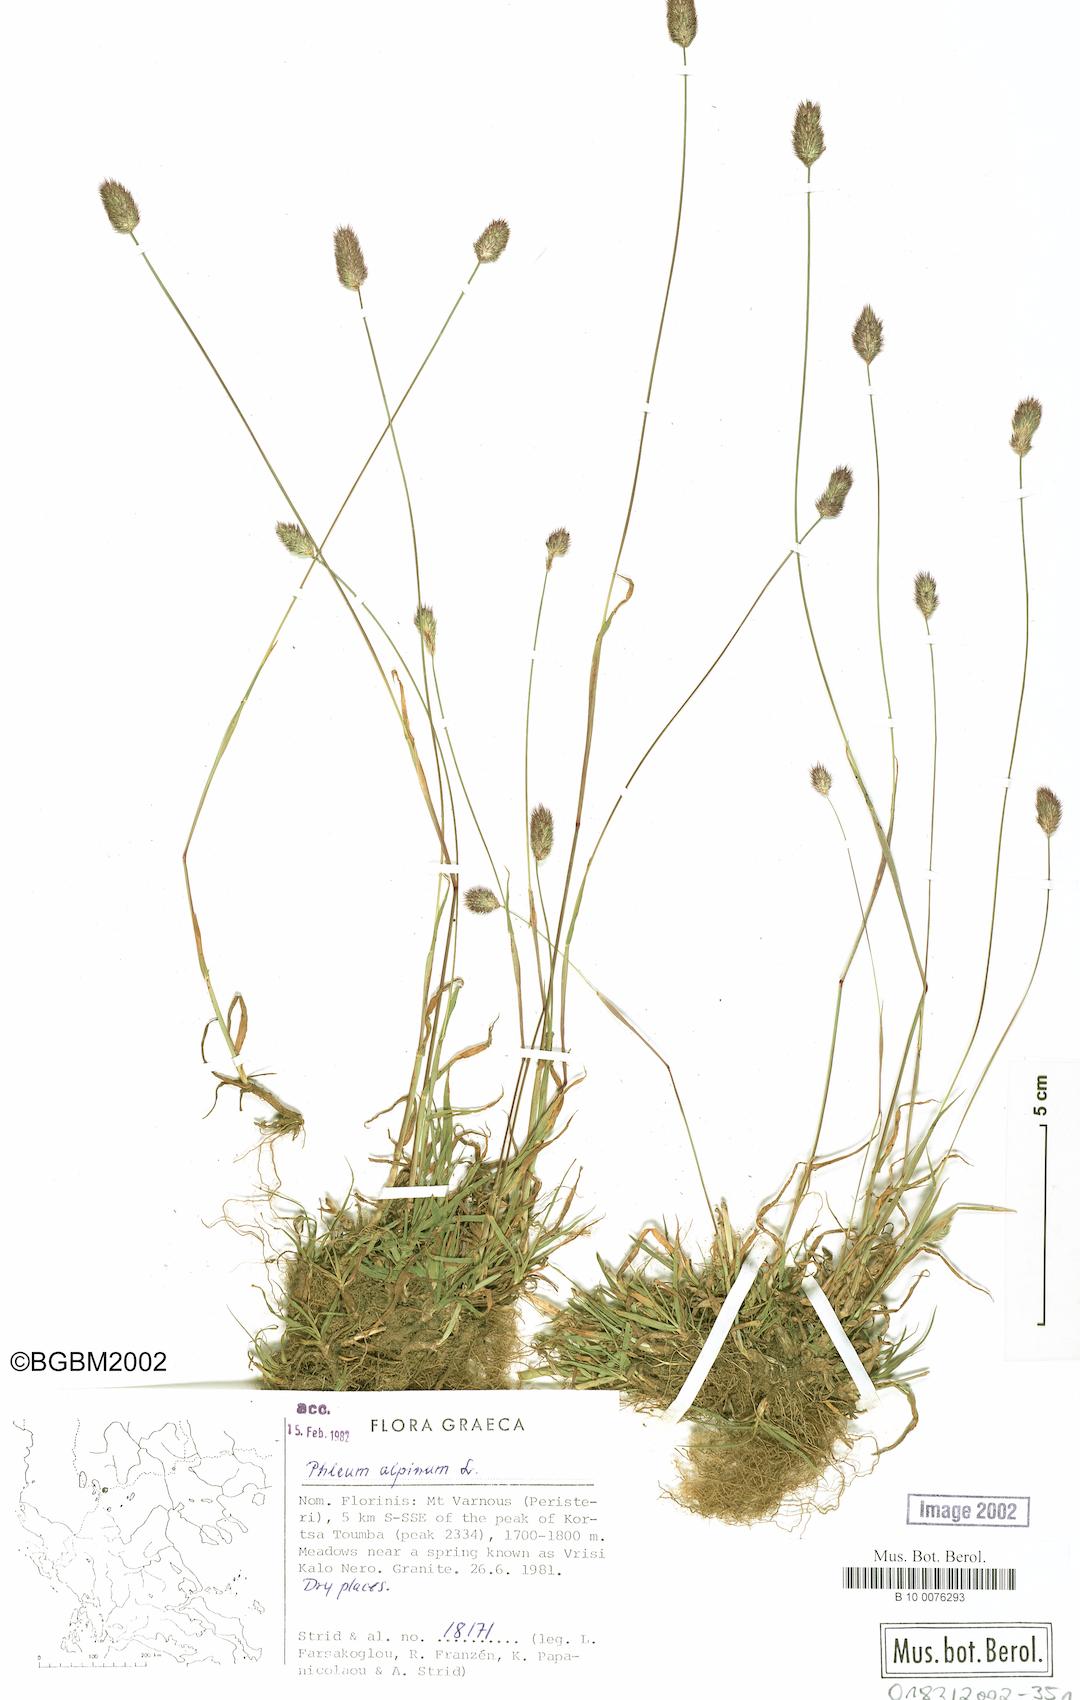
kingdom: Plantae
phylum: Tracheophyta
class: Liliopsida
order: Poales
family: Poaceae
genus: Phleum
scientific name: Phleum alpinum
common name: Alpine cat's-tail
